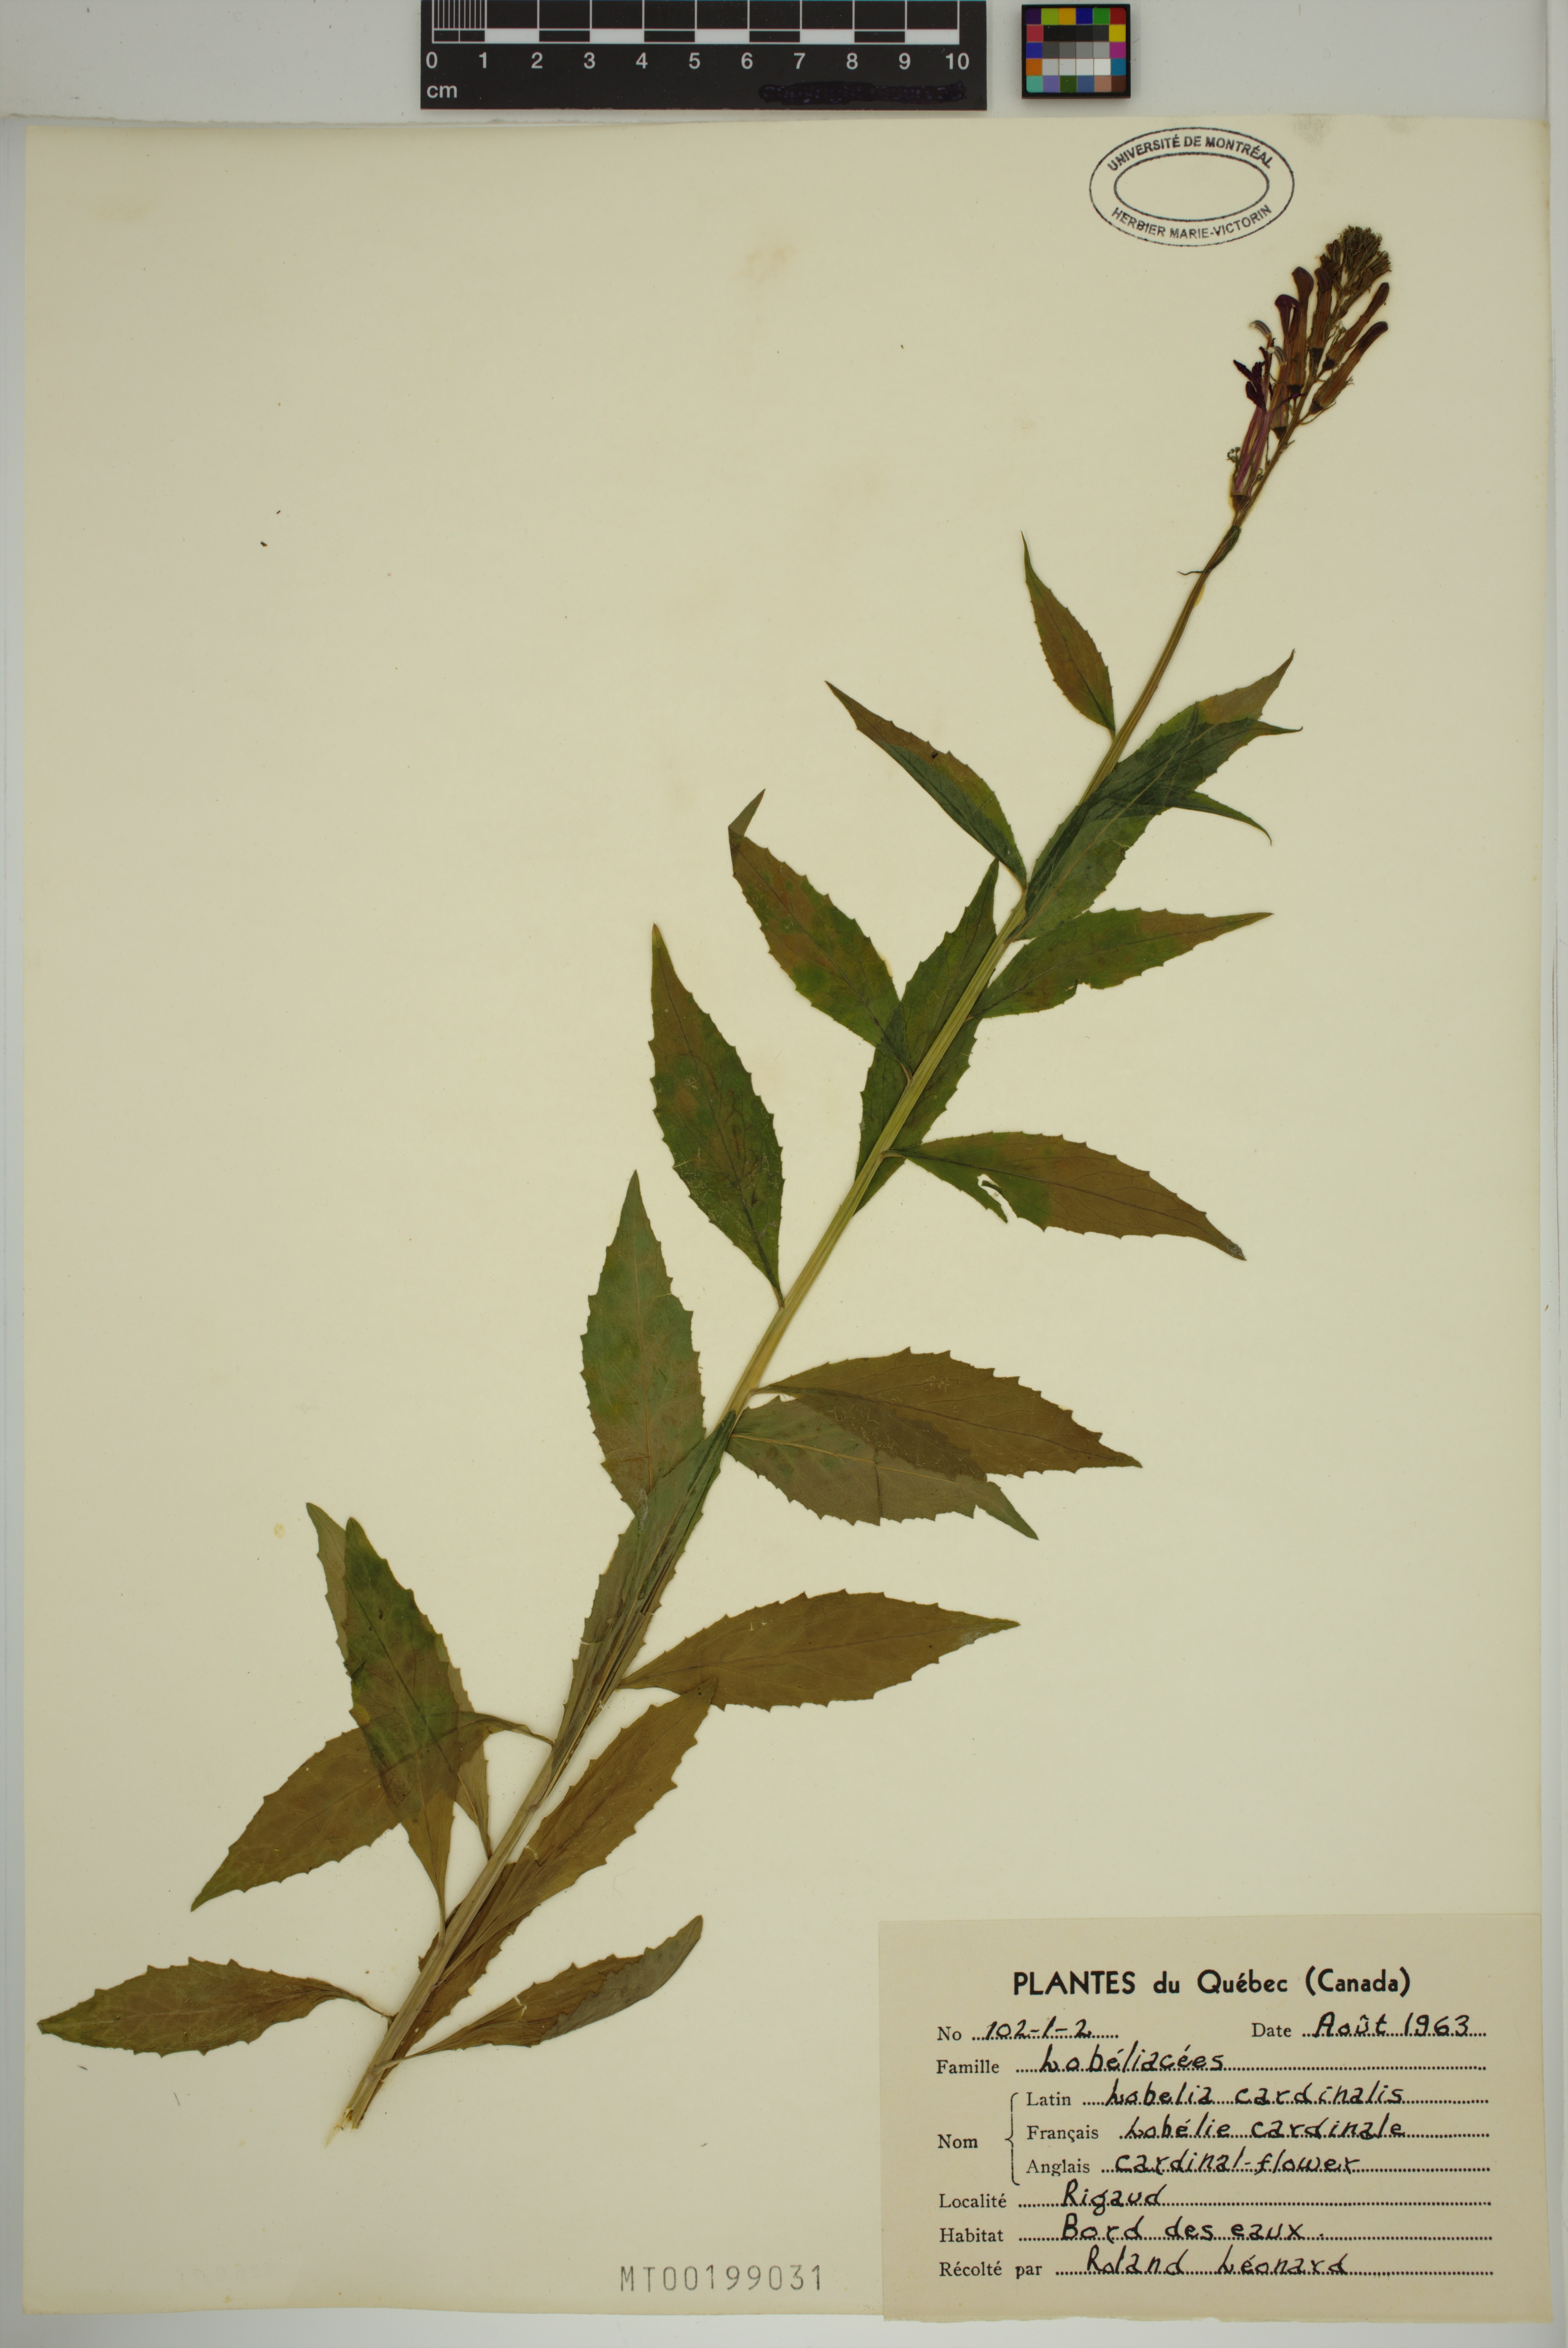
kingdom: Plantae
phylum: Tracheophyta
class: Magnoliopsida
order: Asterales
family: Campanulaceae
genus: Lobelia
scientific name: Lobelia cardinalis
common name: Cardinal flower
